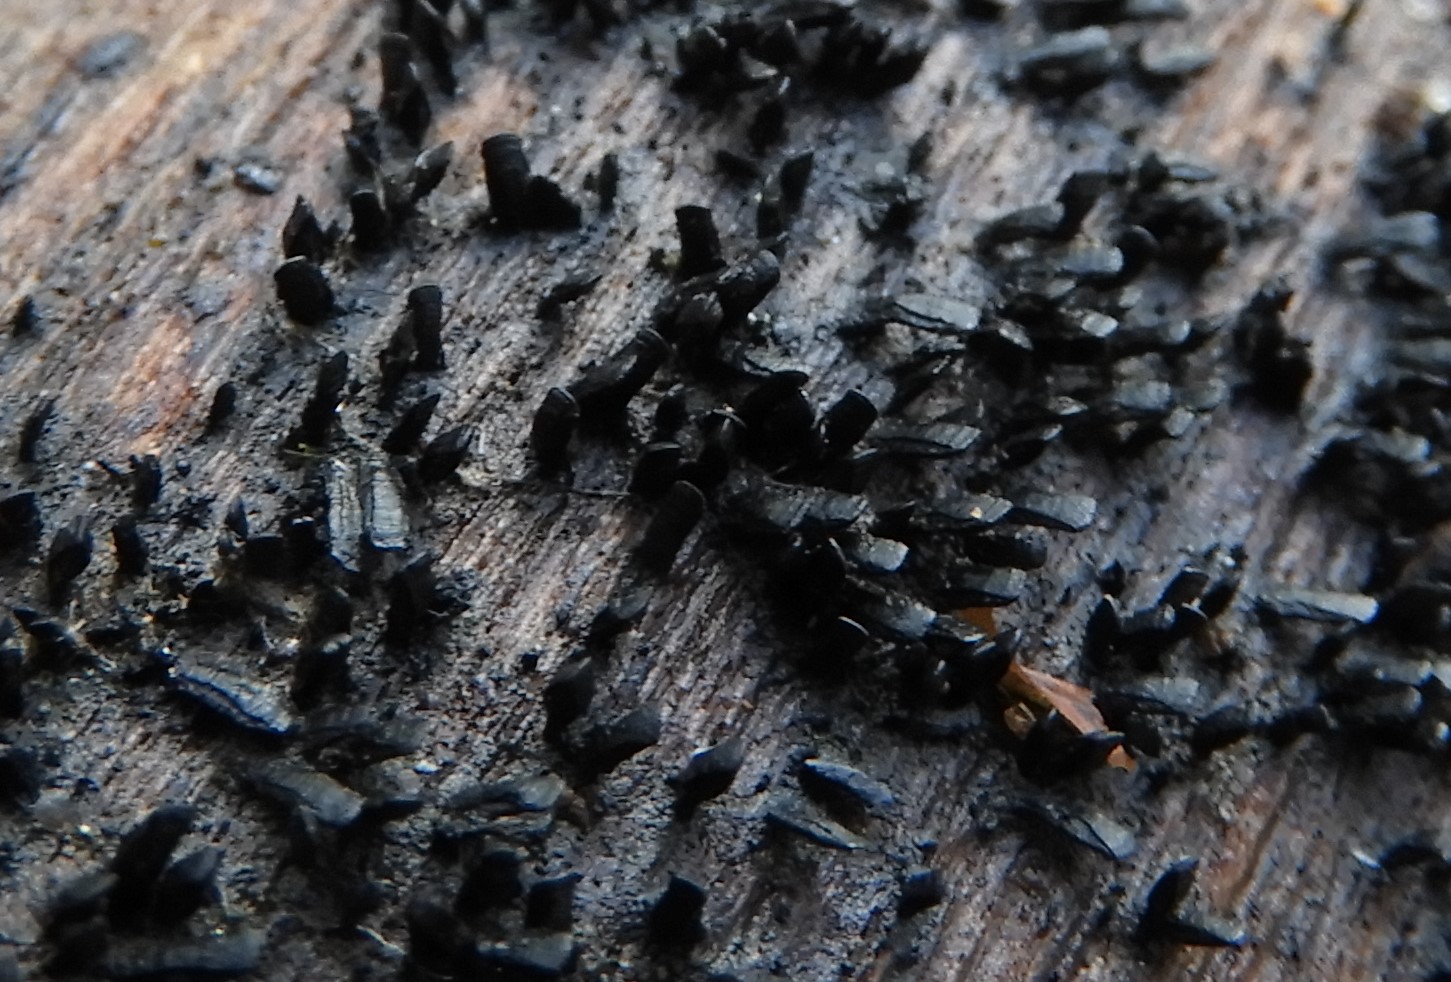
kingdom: Fungi
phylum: Ascomycota
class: Eurotiomycetes
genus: Glyphium
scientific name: Glyphium elatum
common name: kuløkse
